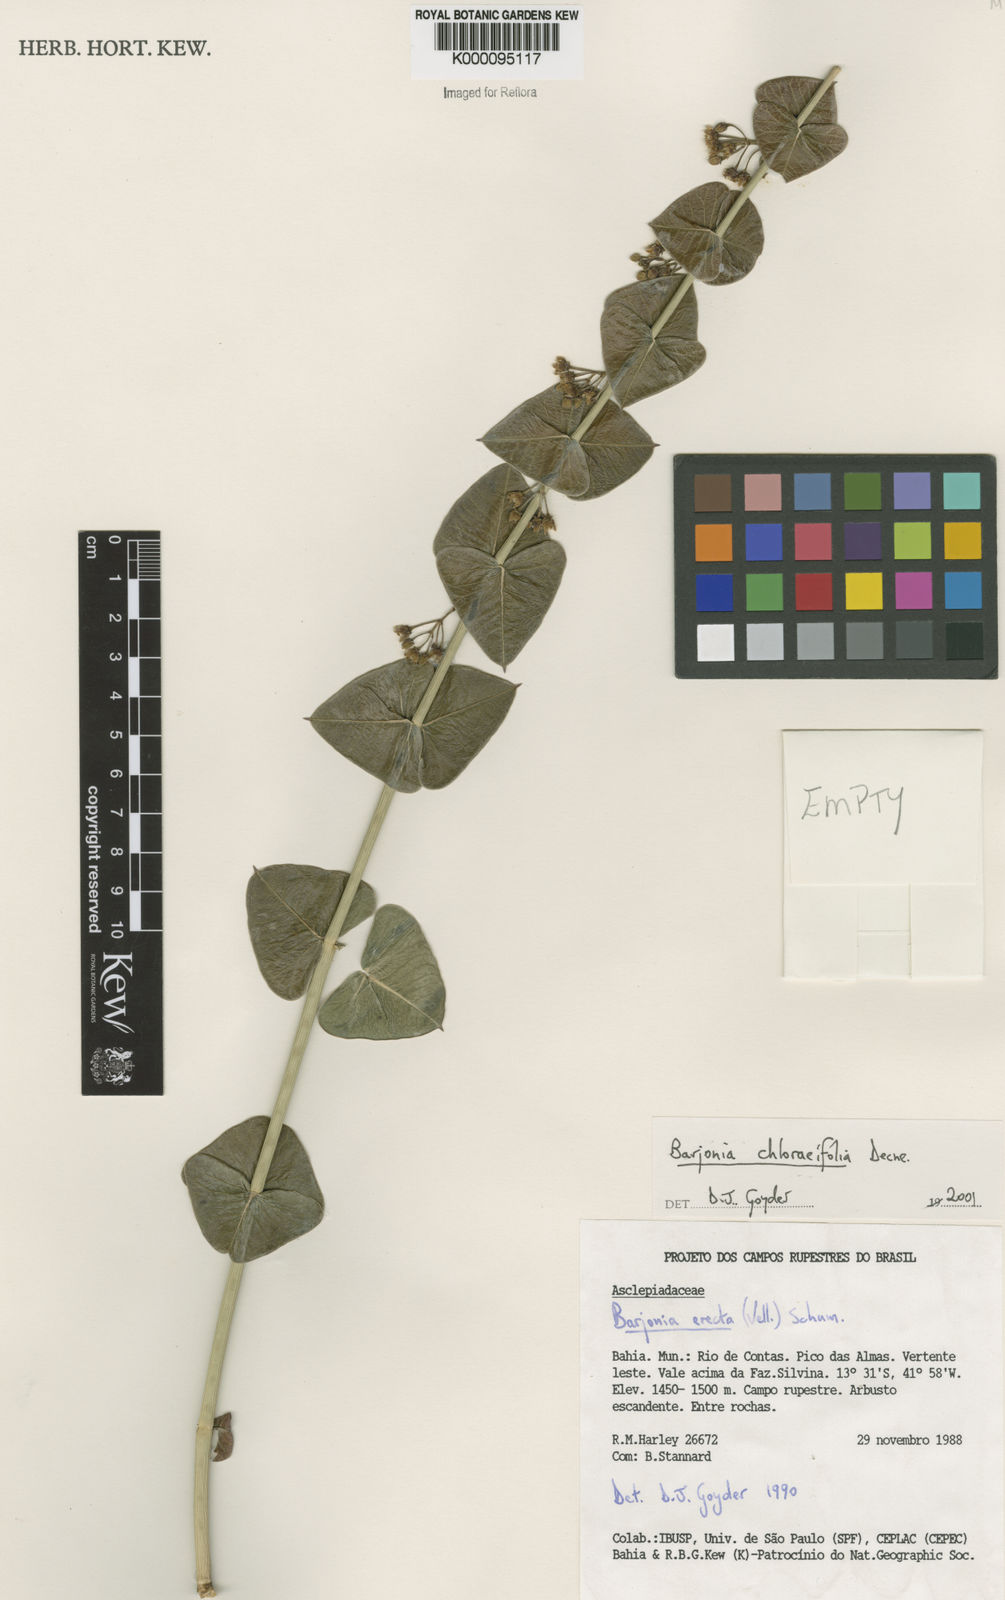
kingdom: Plantae
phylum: Tracheophyta
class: Magnoliopsida
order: Gentianales
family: Apocynaceae
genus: Barjonia
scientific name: Barjonia
